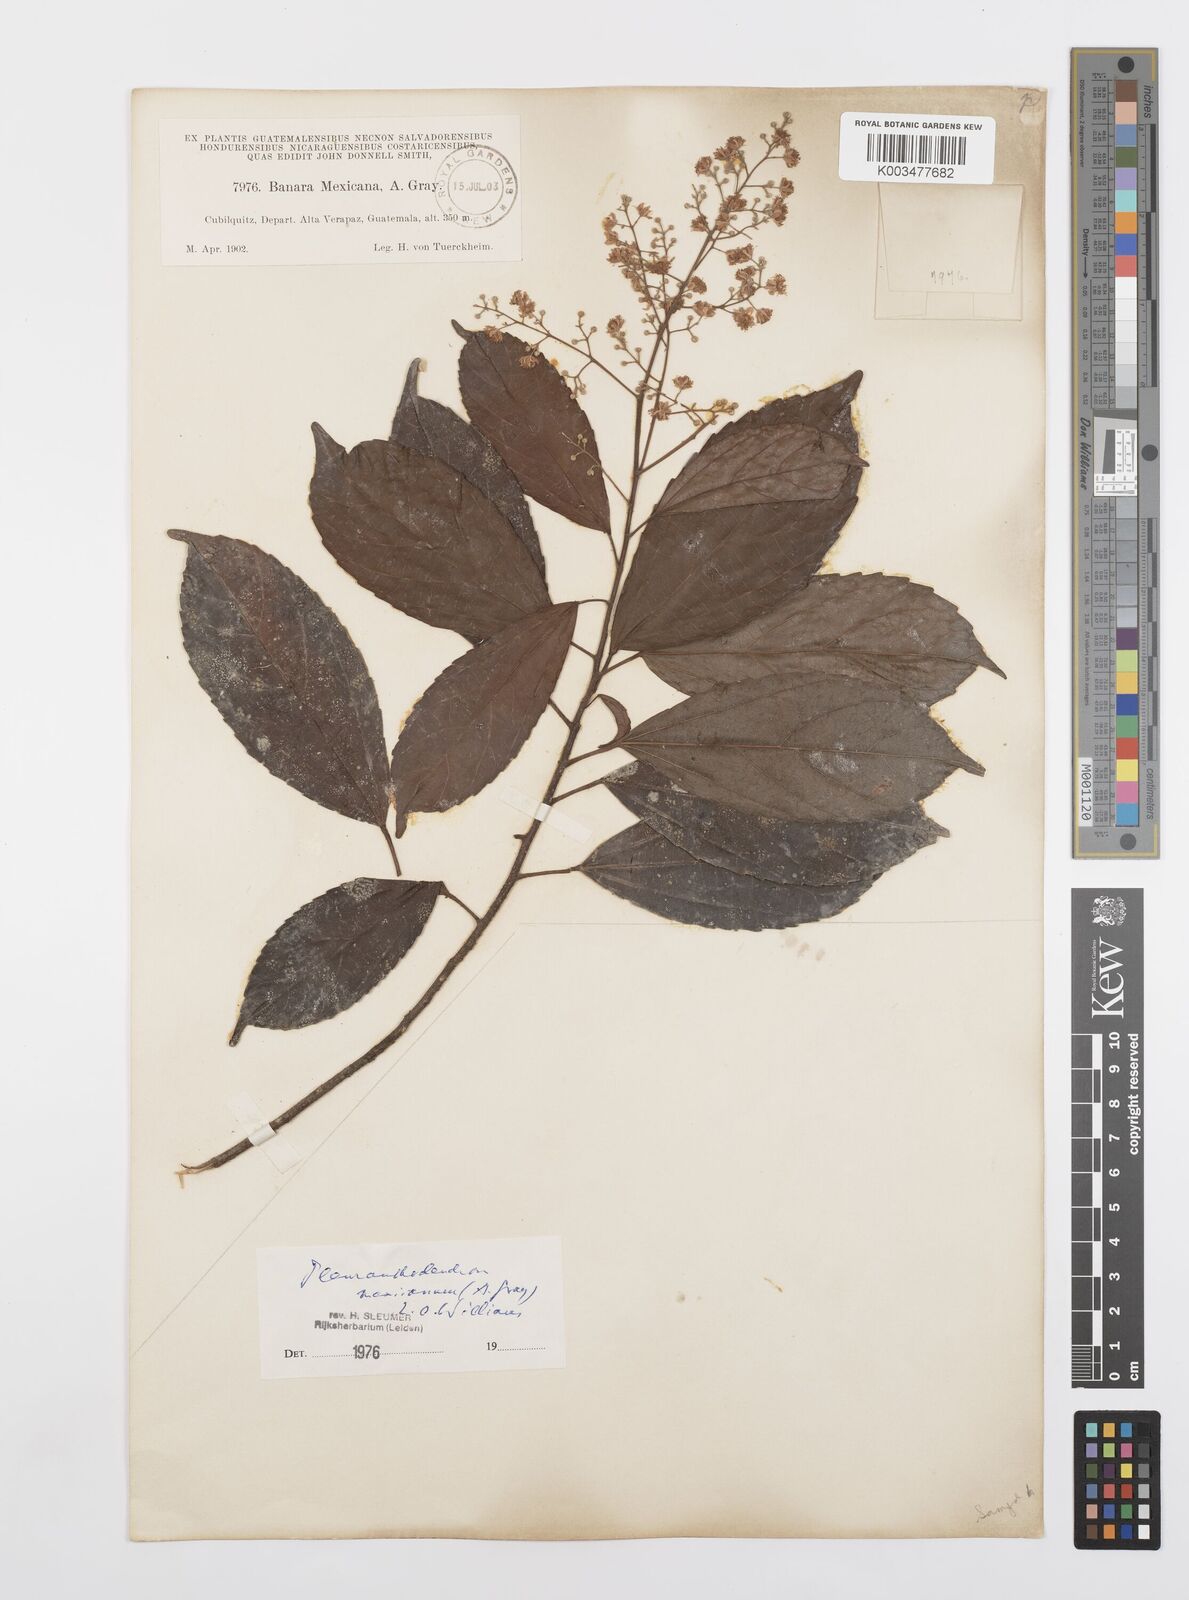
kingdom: Plantae
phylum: Tracheophyta
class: Magnoliopsida
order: Malpighiales
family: Salicaceae
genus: Pleuranthodendron
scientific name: Pleuranthodendron lindenii
